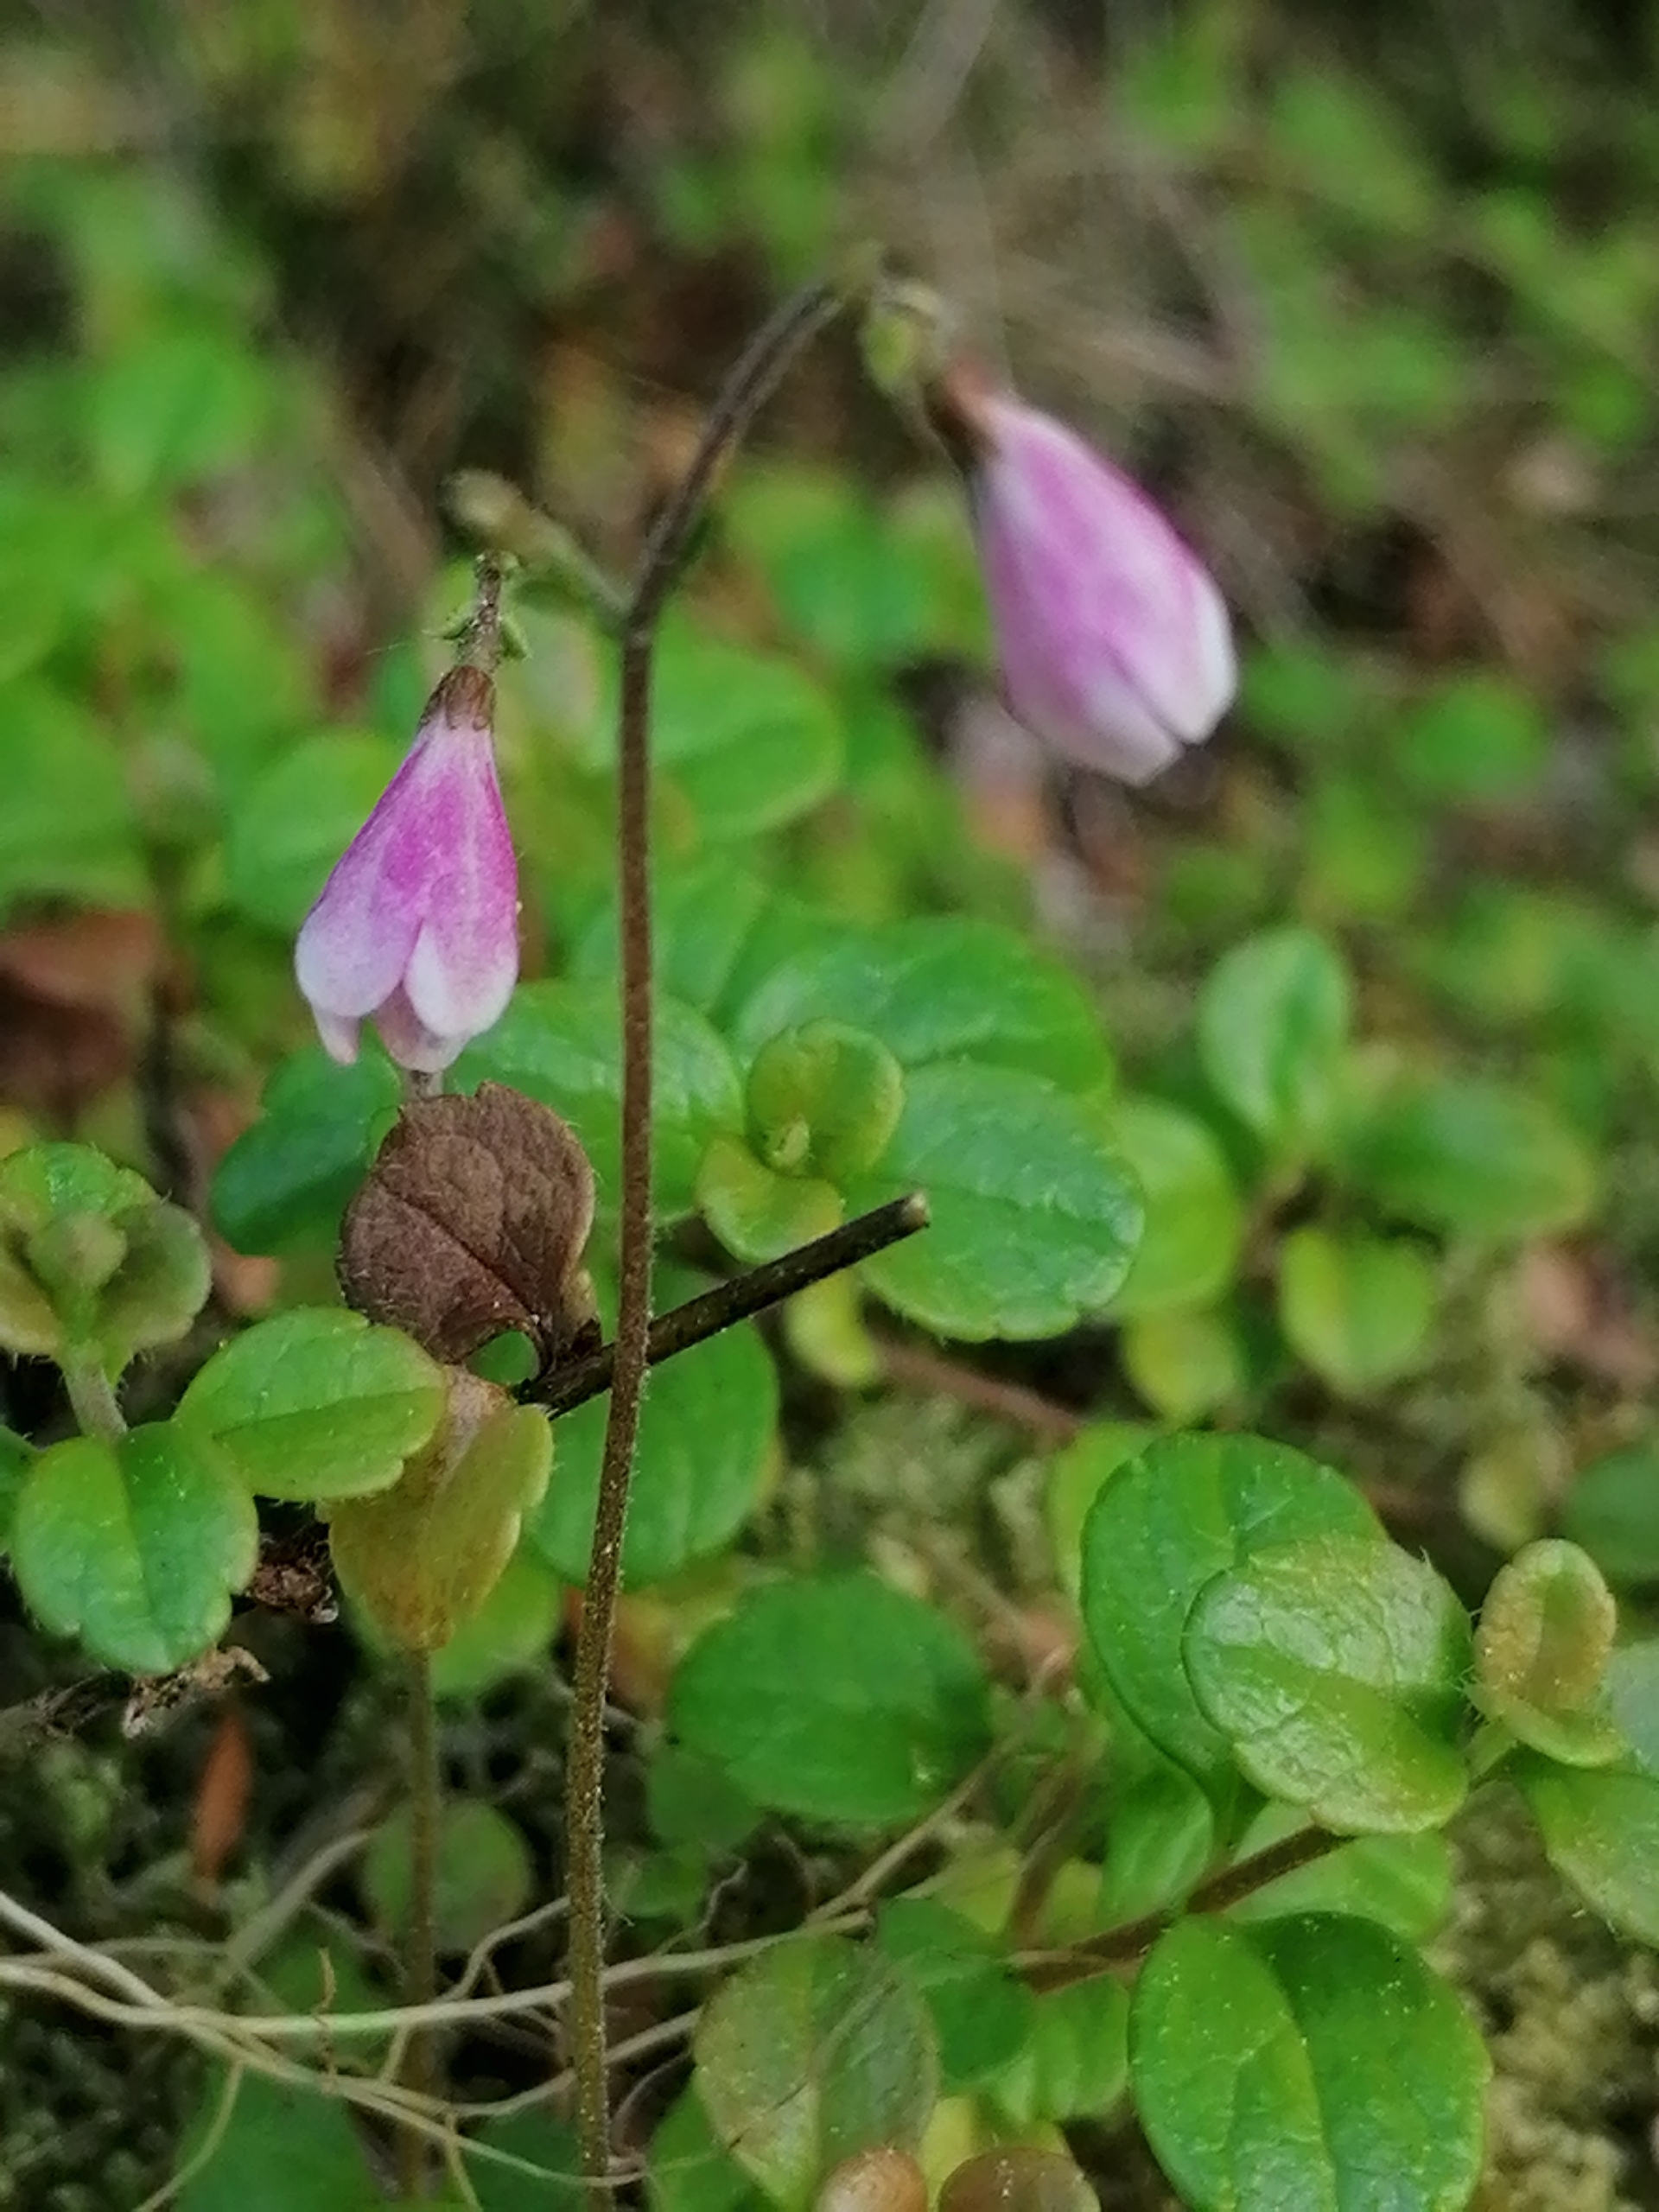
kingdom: Plantae
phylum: Tracheophyta
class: Magnoliopsida
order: Dipsacales
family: Caprifoliaceae
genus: Linnaea
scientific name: Linnaea borealis
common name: Linnæa
